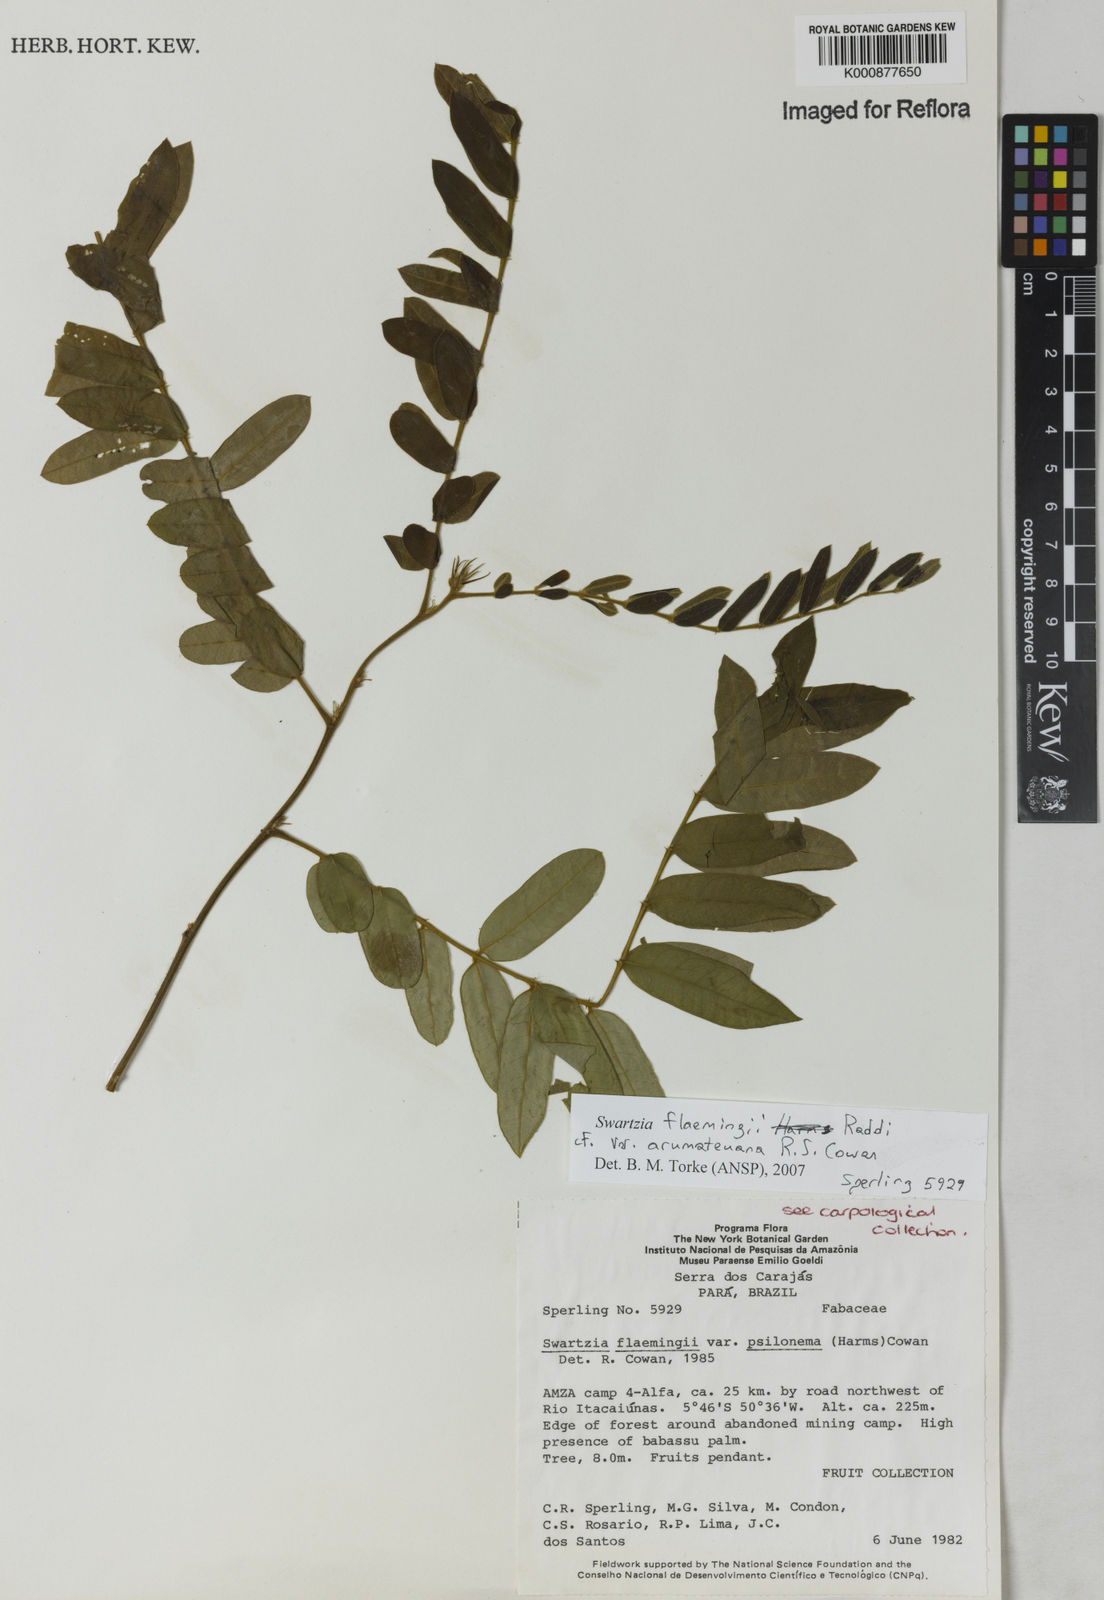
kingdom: Plantae
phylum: Tracheophyta
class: Magnoliopsida
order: Fabales
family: Fabaceae
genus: Swartzia
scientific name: Swartzia arumateuana
